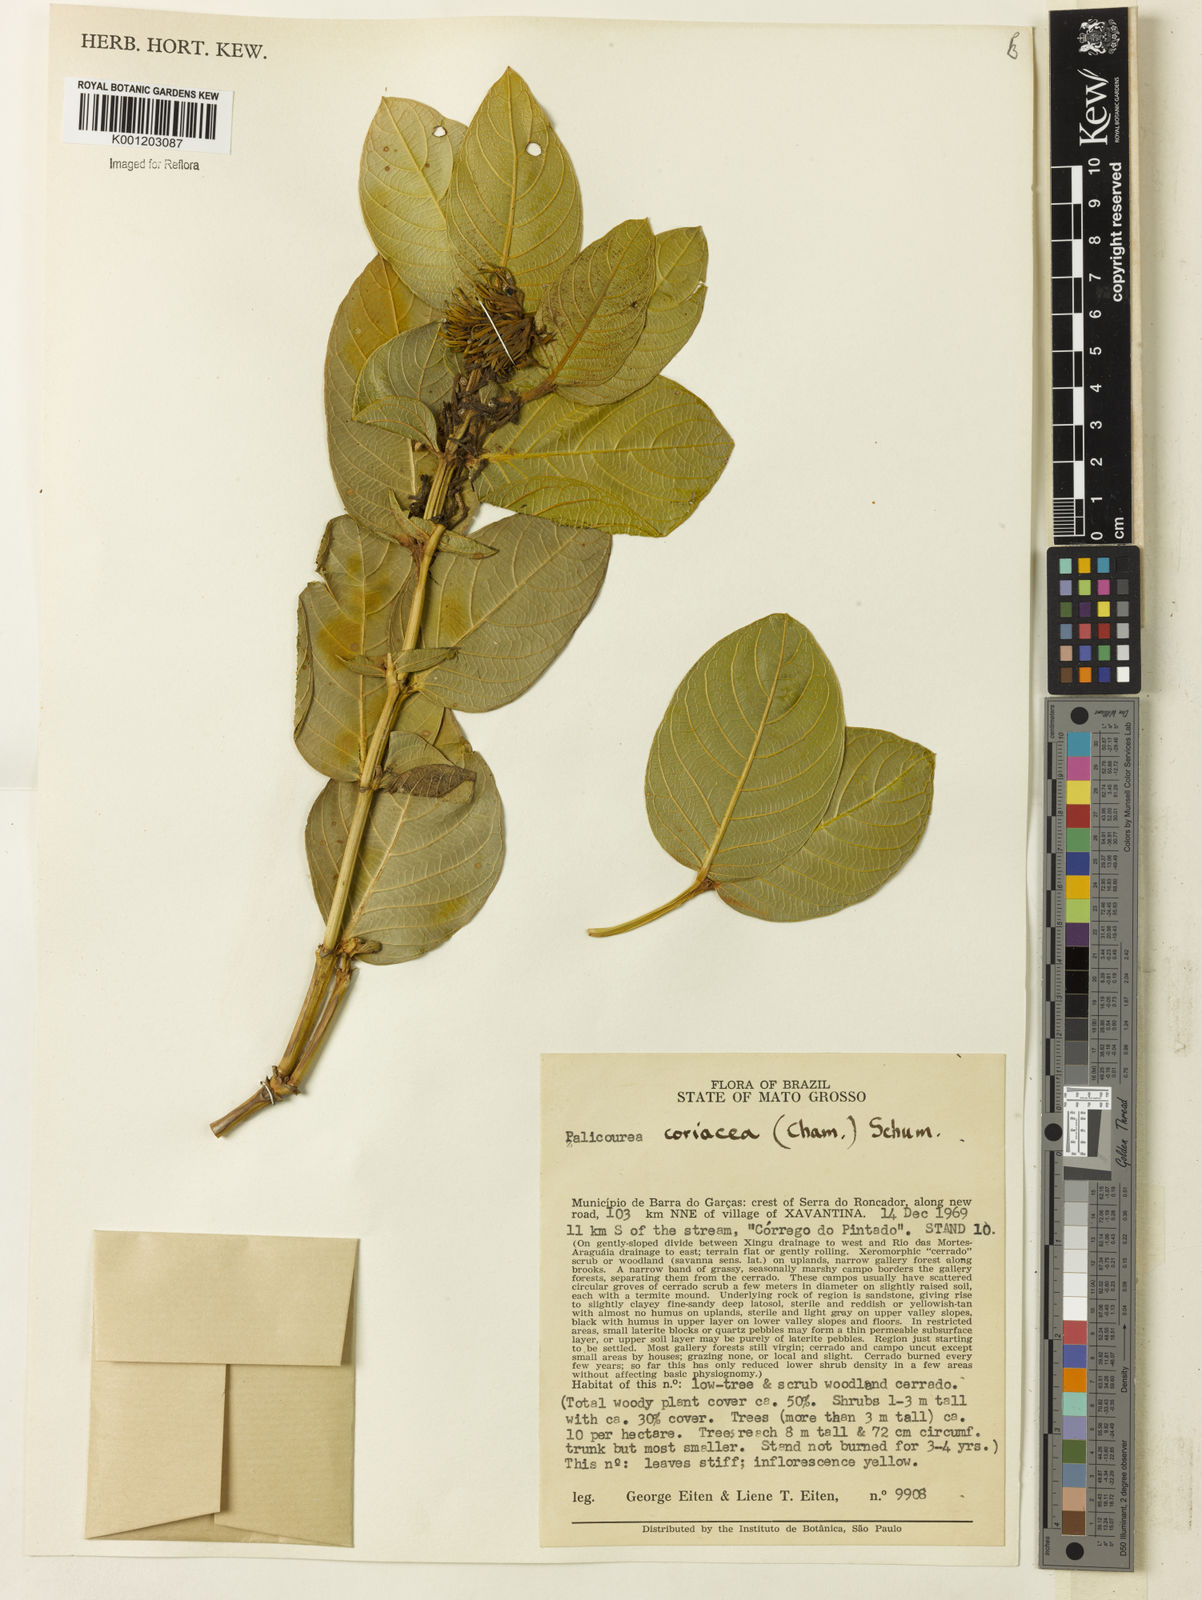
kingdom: Plantae
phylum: Tracheophyta
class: Magnoliopsida
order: Gentianales
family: Rubiaceae
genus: Palicourea
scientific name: Palicourea coriacea
